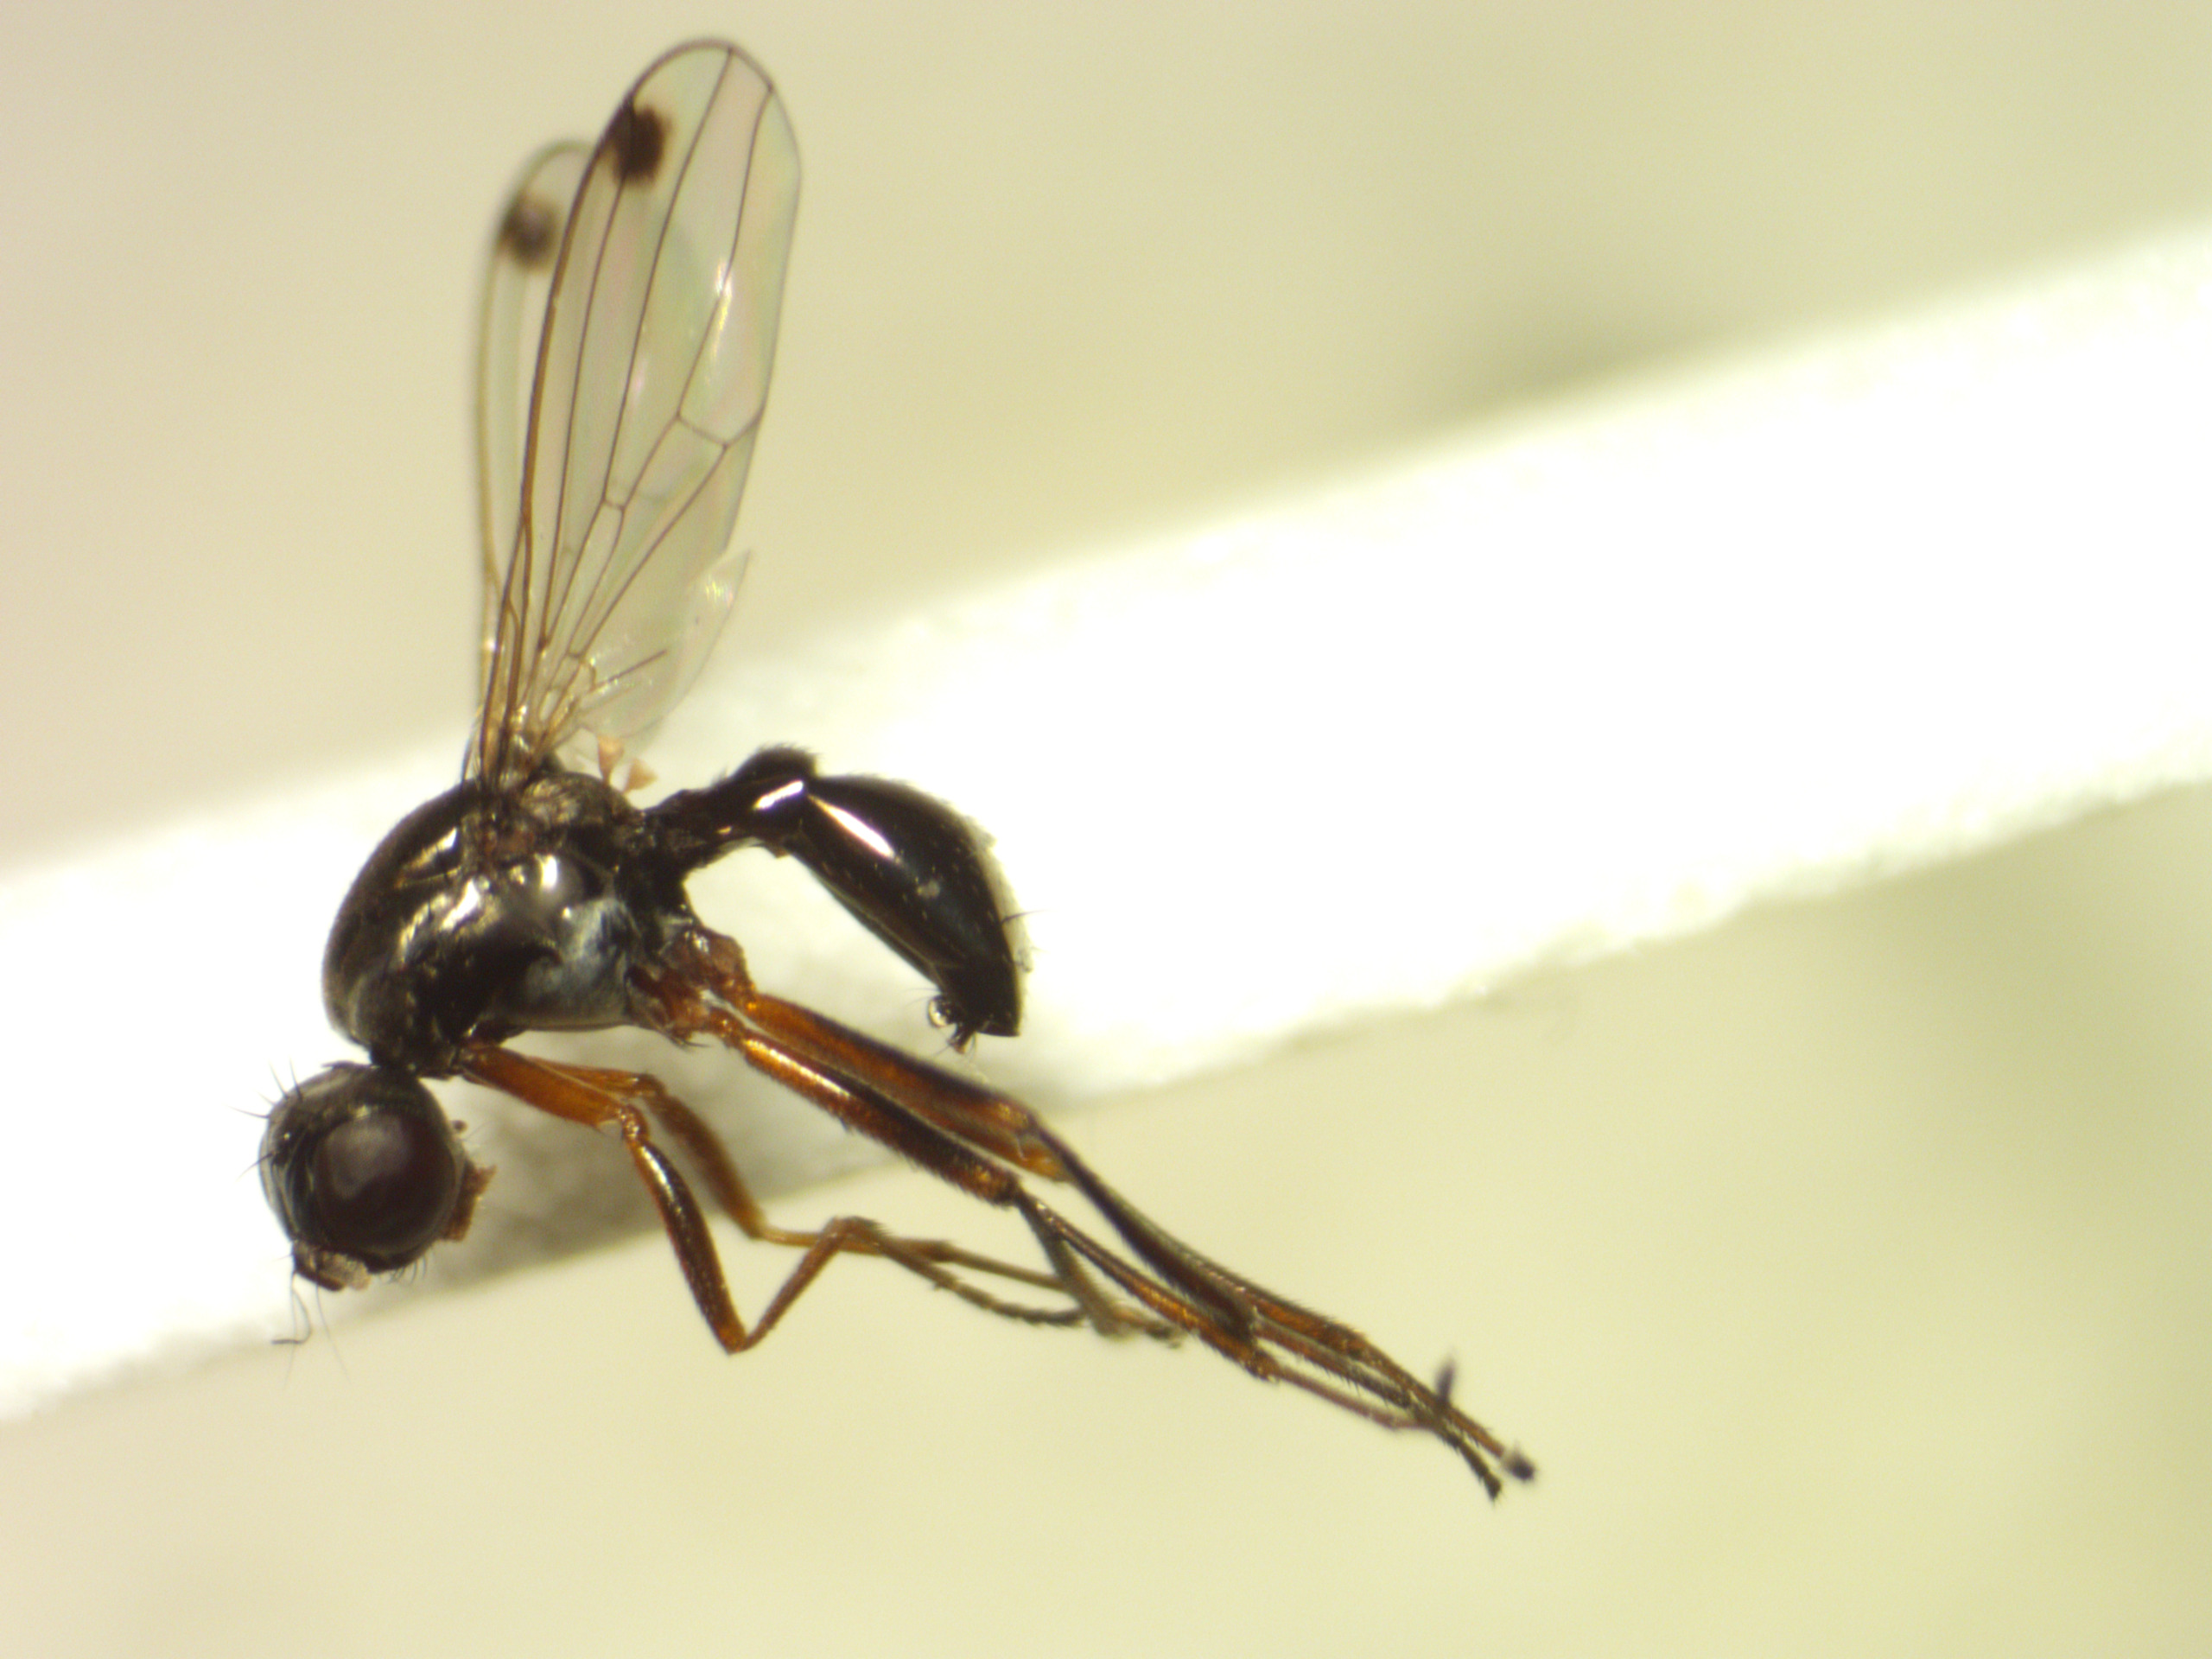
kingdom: Animalia
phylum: Arthropoda
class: Insecta
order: Diptera
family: Sepsidae
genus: Sepsis
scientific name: Sepsis cynipsea
